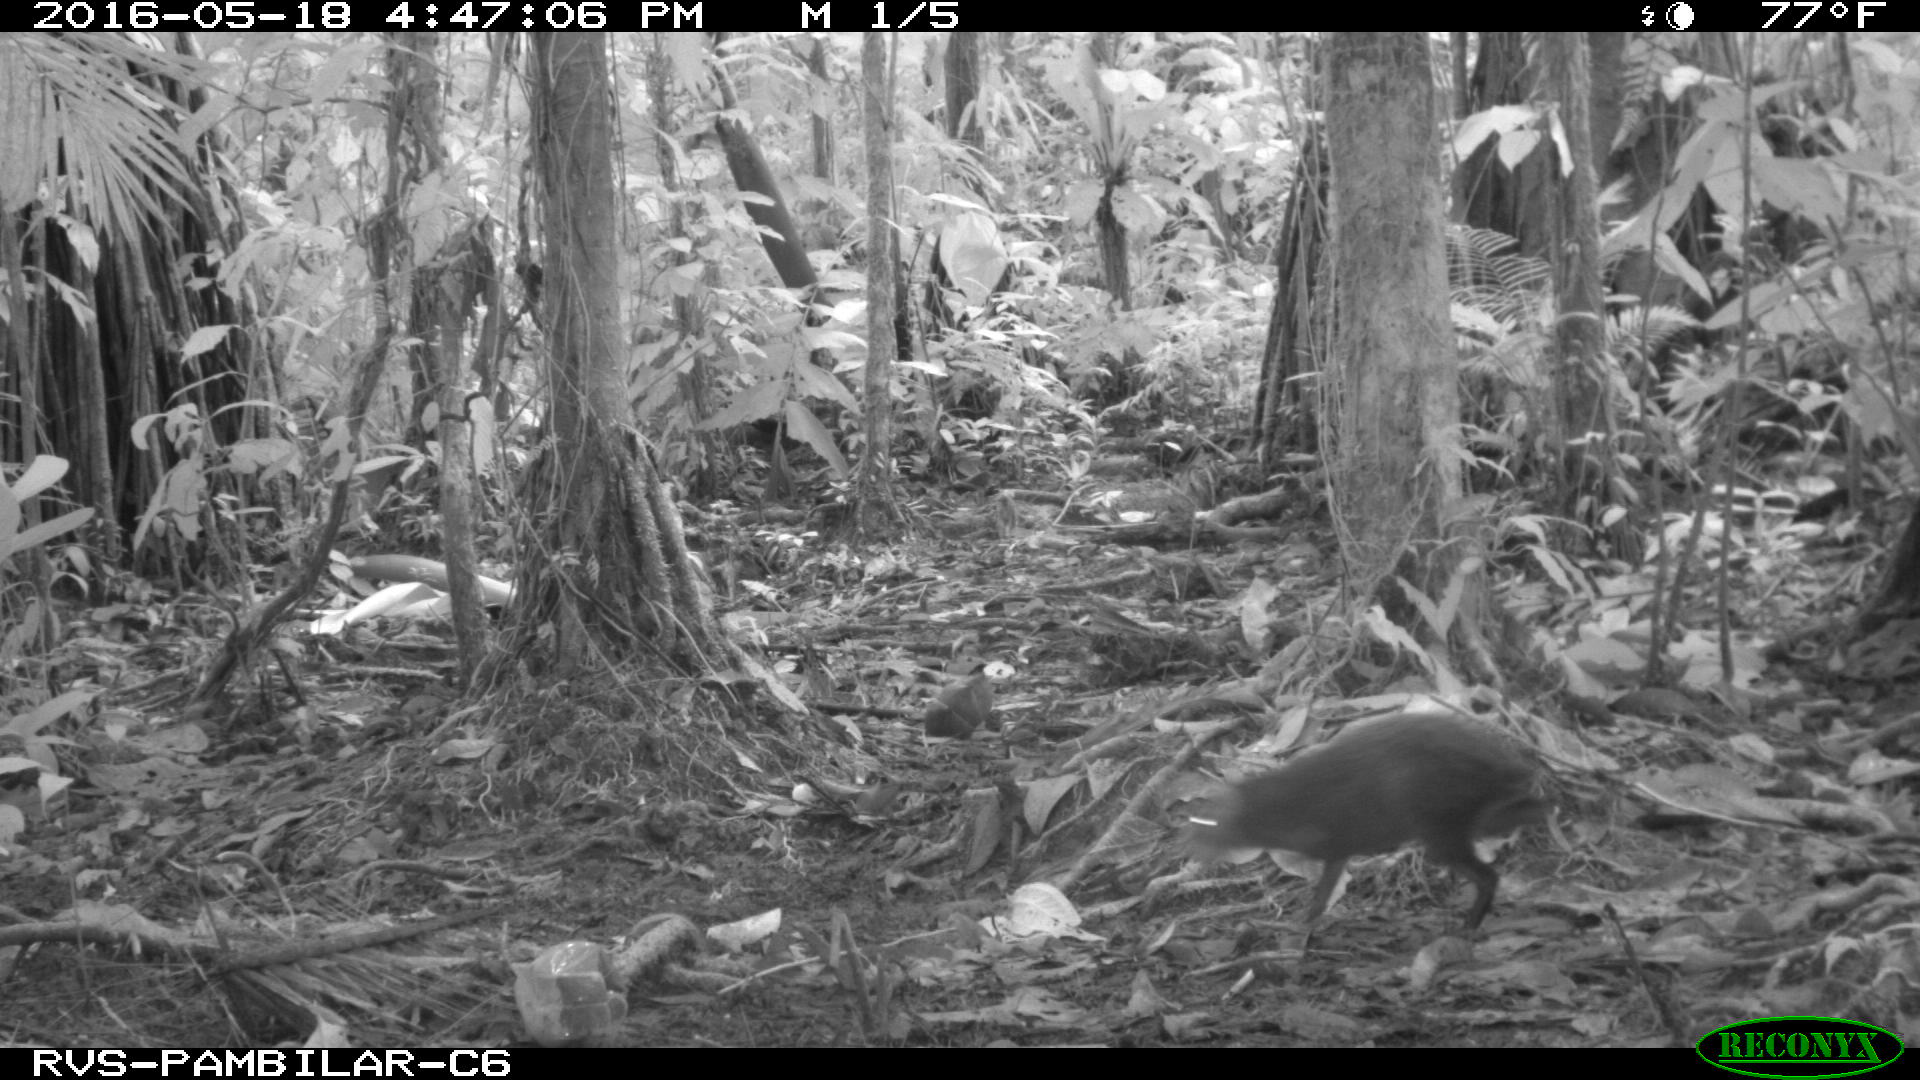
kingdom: Animalia
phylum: Chordata
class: Mammalia
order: Rodentia
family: Dasyproctidae
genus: Dasyprocta
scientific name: Dasyprocta punctata
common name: Central american agouti
